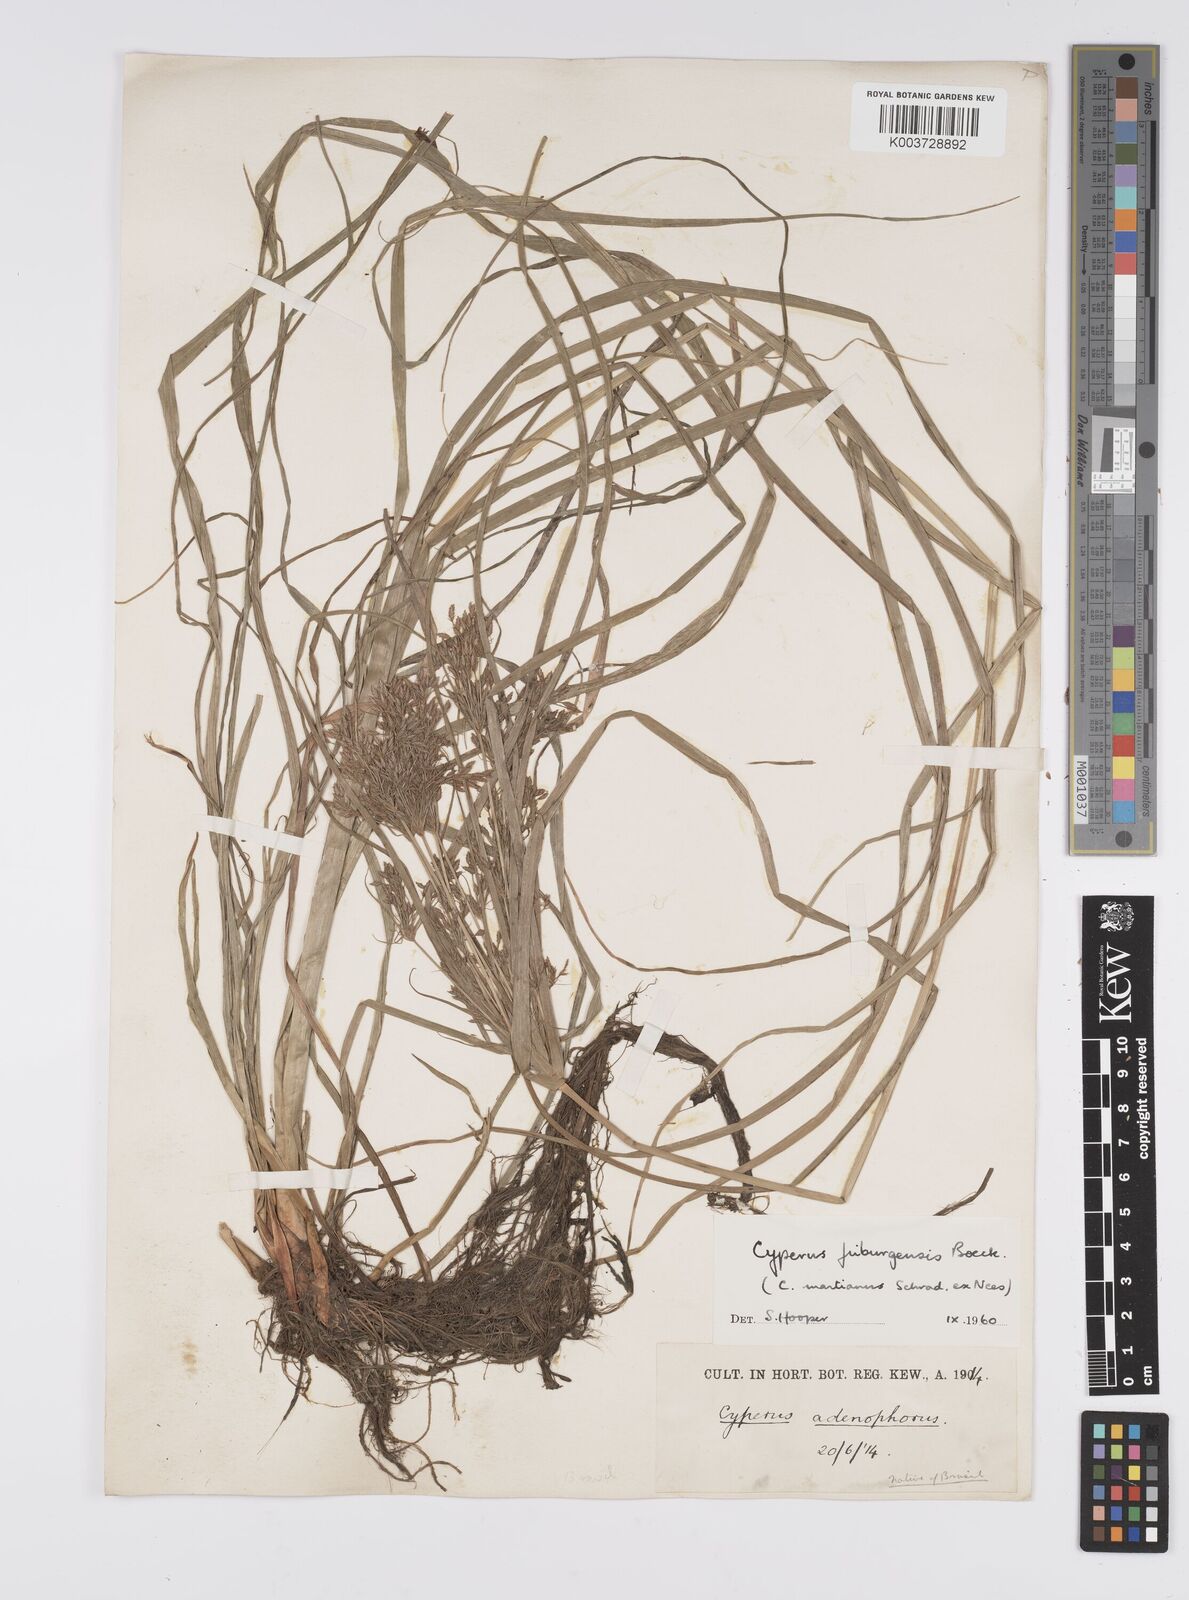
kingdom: Plantae
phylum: Tracheophyta
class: Liliopsida
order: Poales
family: Cyperaceae
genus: Cyperus
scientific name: Cyperus friburgensis
